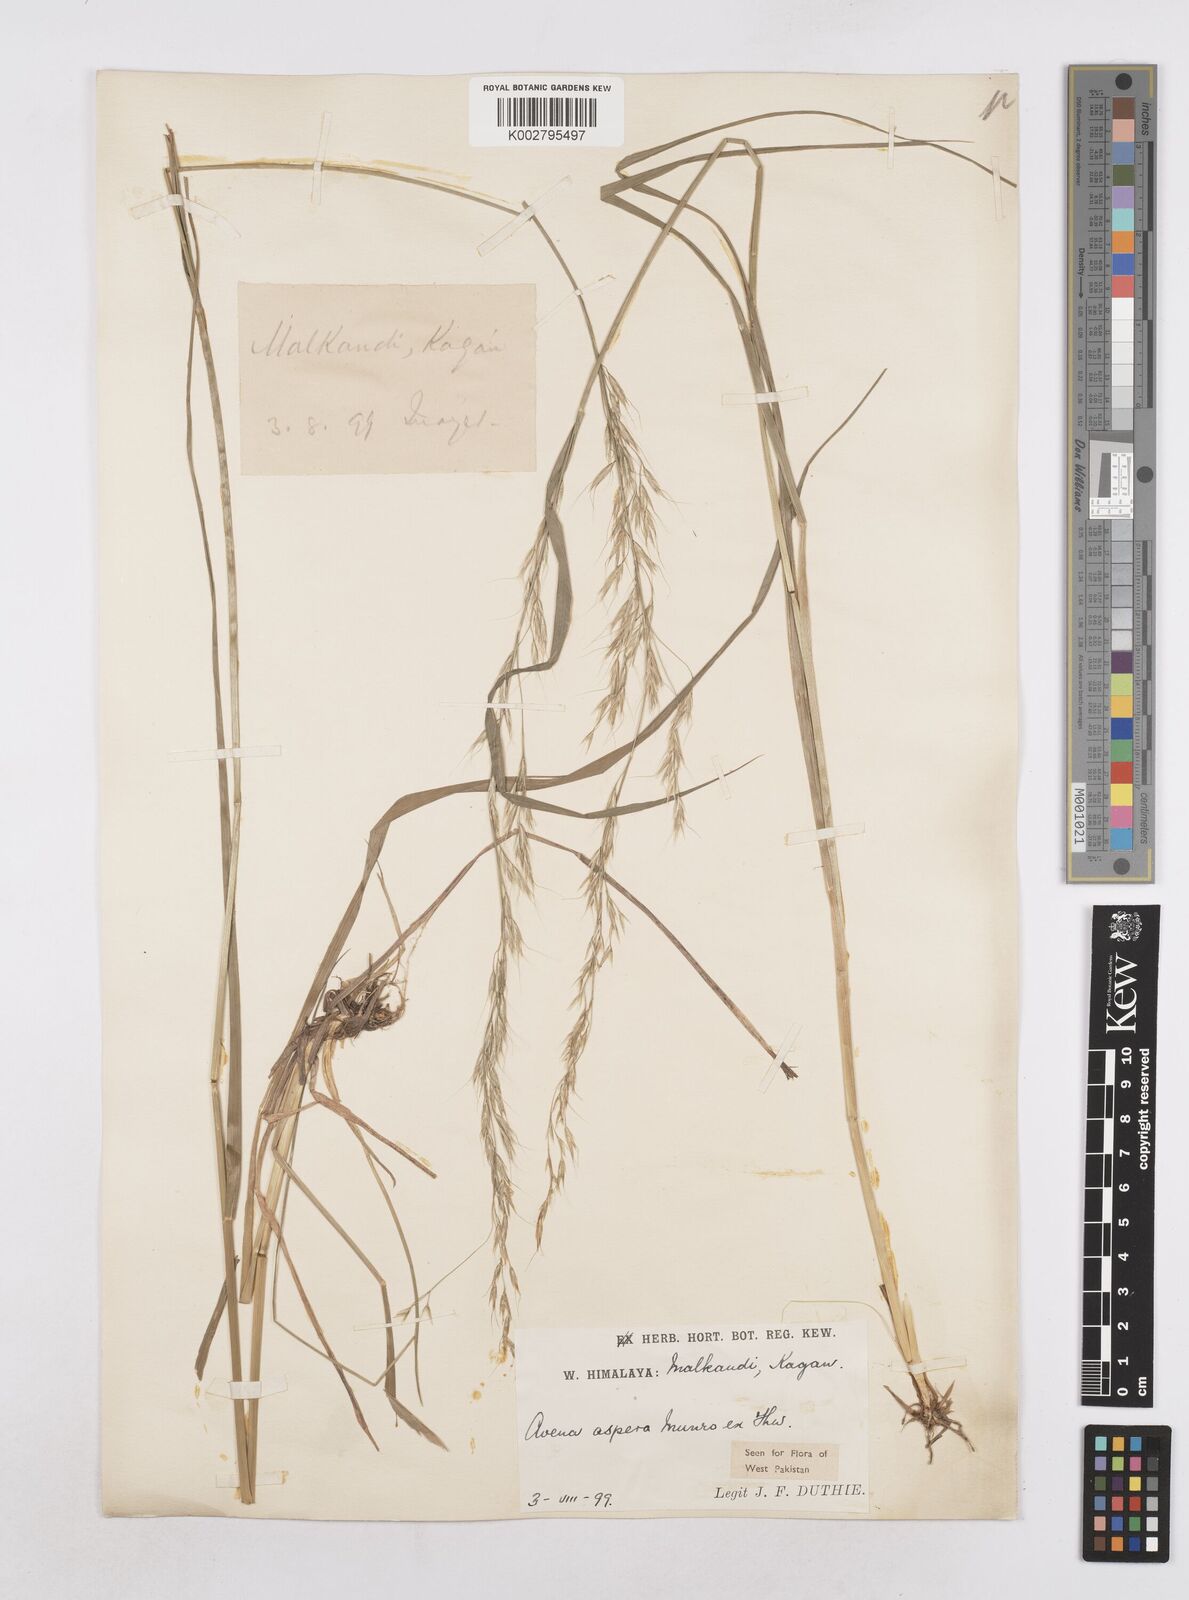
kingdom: Plantae
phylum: Tracheophyta
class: Liliopsida
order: Poales
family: Poaceae
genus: Trisetopsis
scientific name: Trisetopsis junghuhnii
